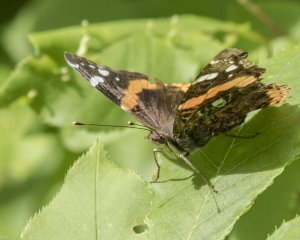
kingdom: Animalia
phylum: Arthropoda
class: Insecta
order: Lepidoptera
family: Nymphalidae
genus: Vanessa
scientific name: Vanessa atalanta
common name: Red Admiral
